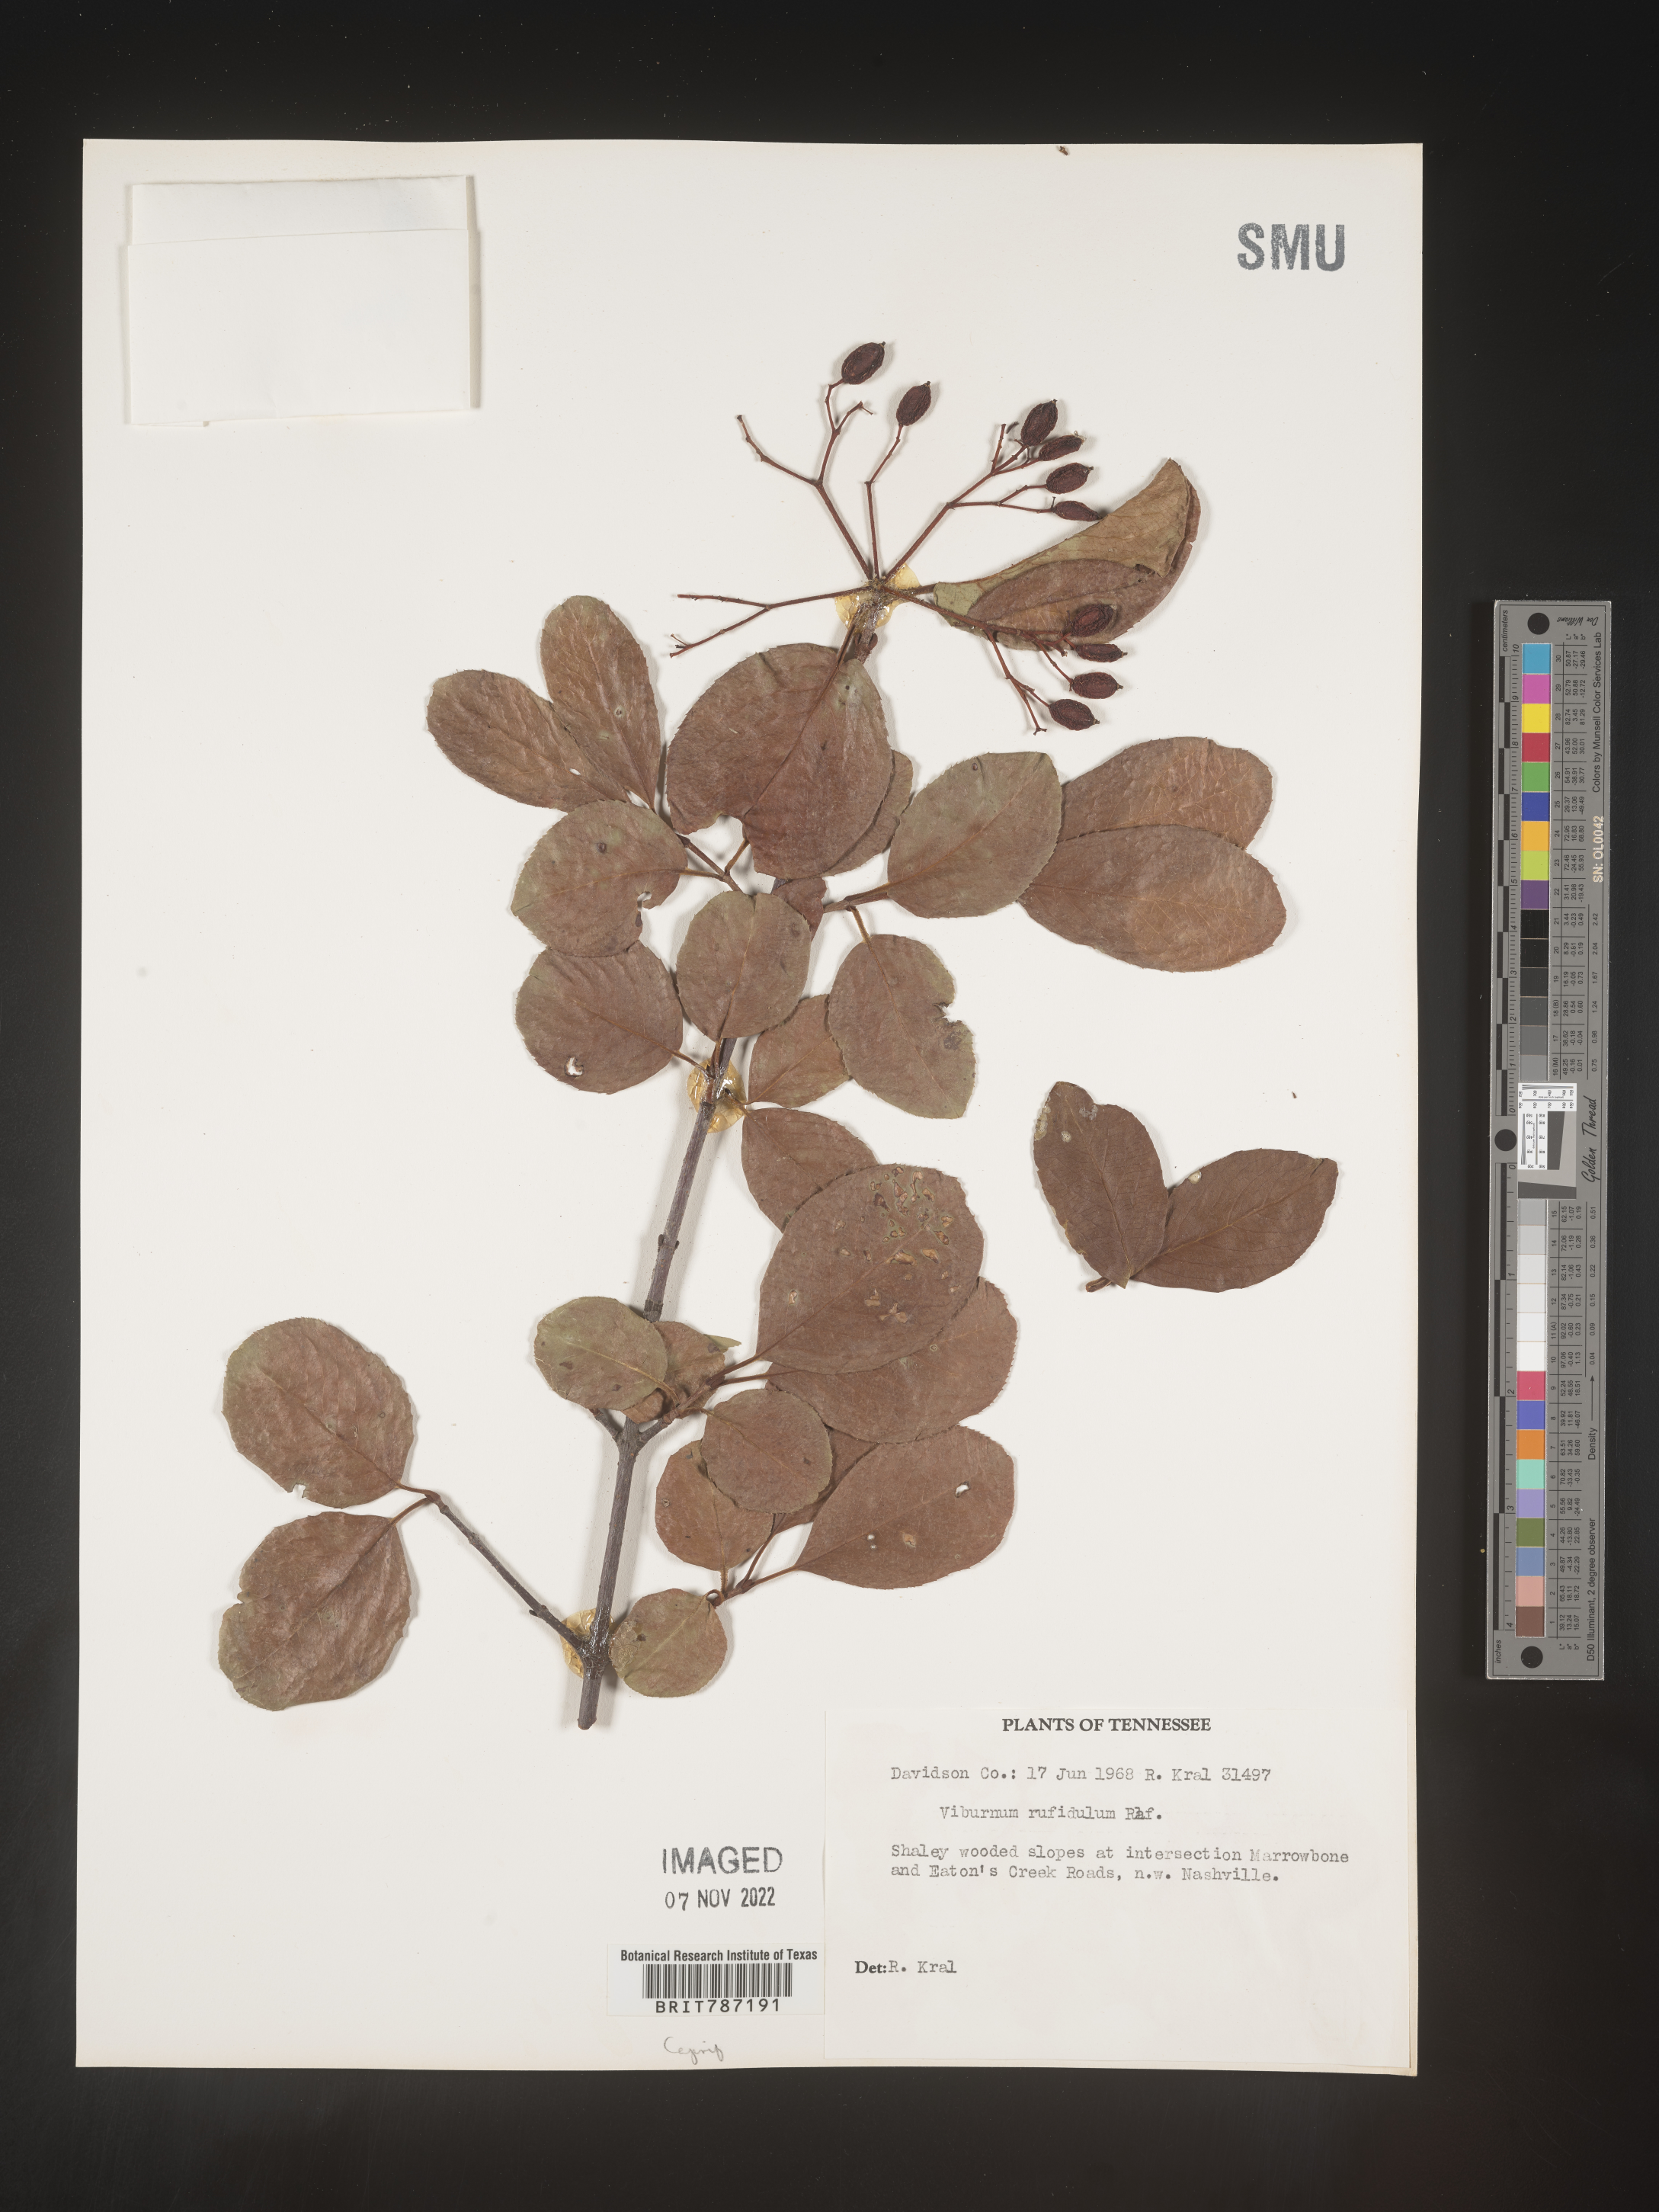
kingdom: Plantae
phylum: Tracheophyta
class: Magnoliopsida
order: Dipsacales
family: Viburnaceae
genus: Viburnum
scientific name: Viburnum rufidulum
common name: Blue haw
